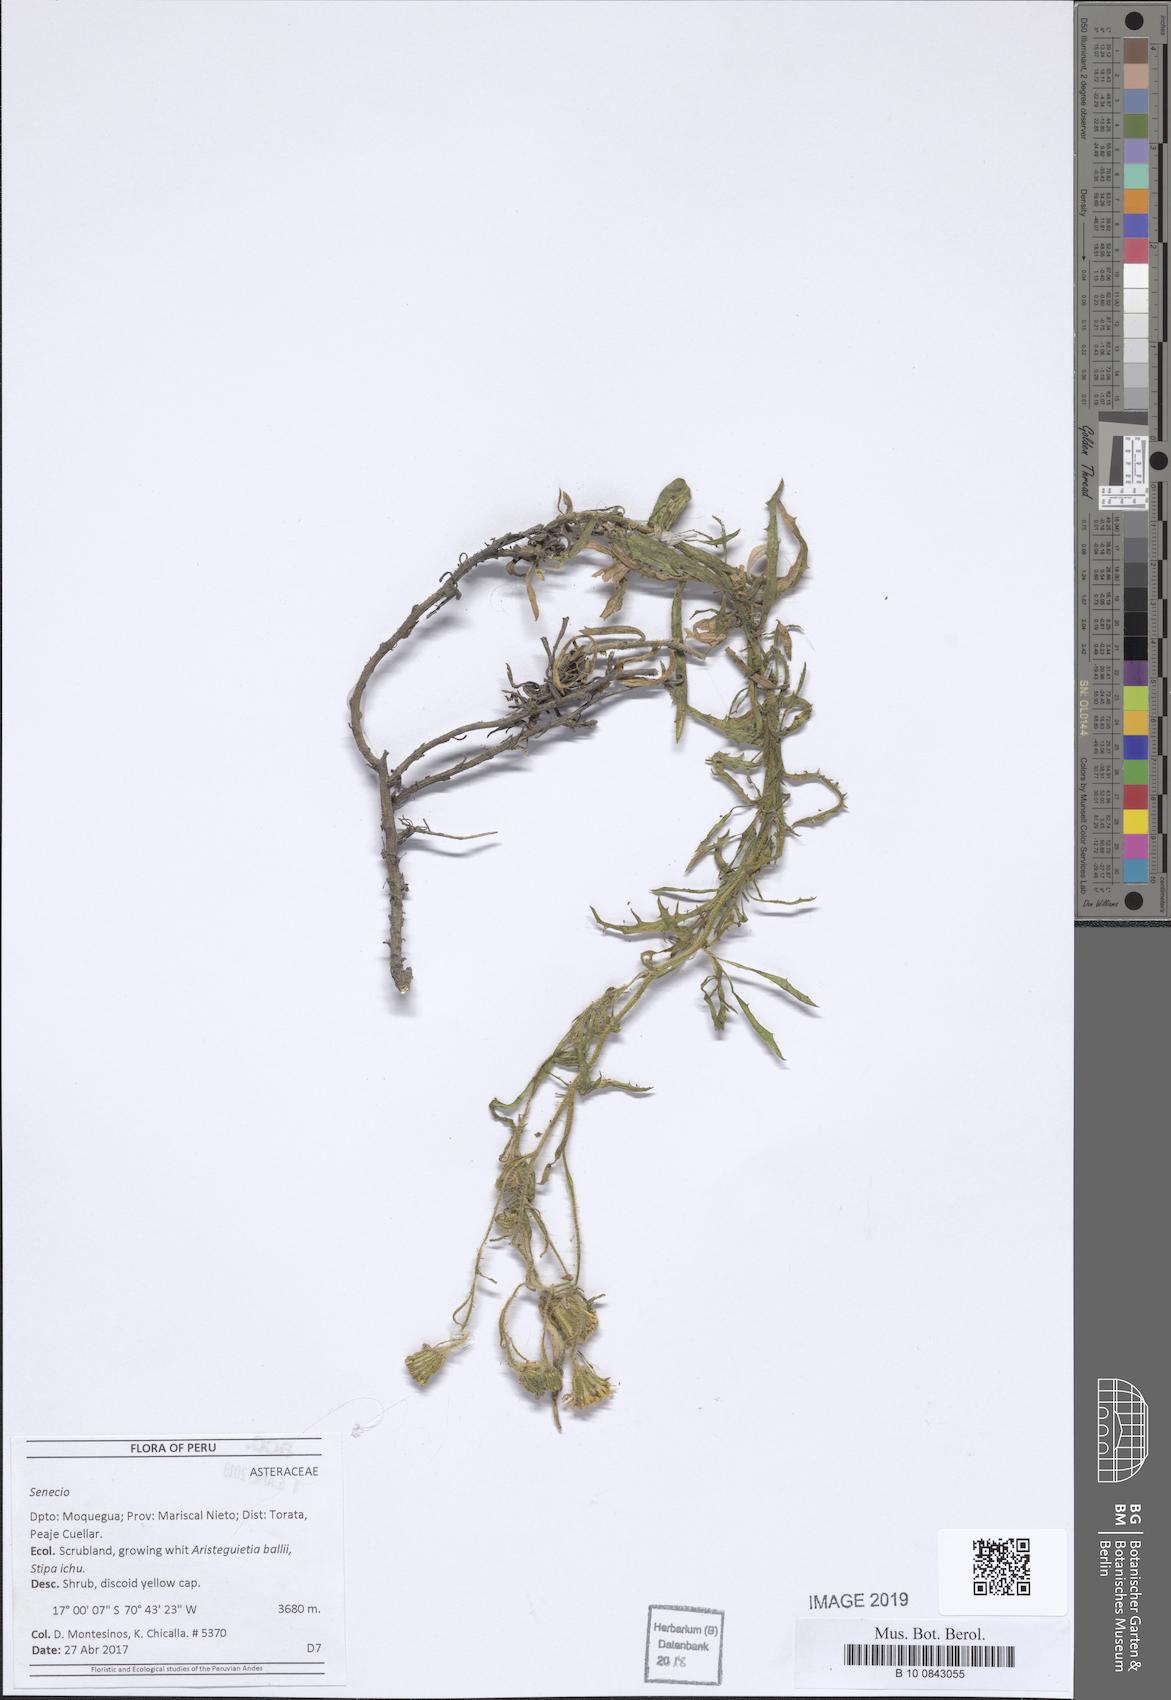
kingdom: Plantae
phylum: Tracheophyta
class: Magnoliopsida
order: Asterales
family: Asteraceae
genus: Senecio
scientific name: Senecio
